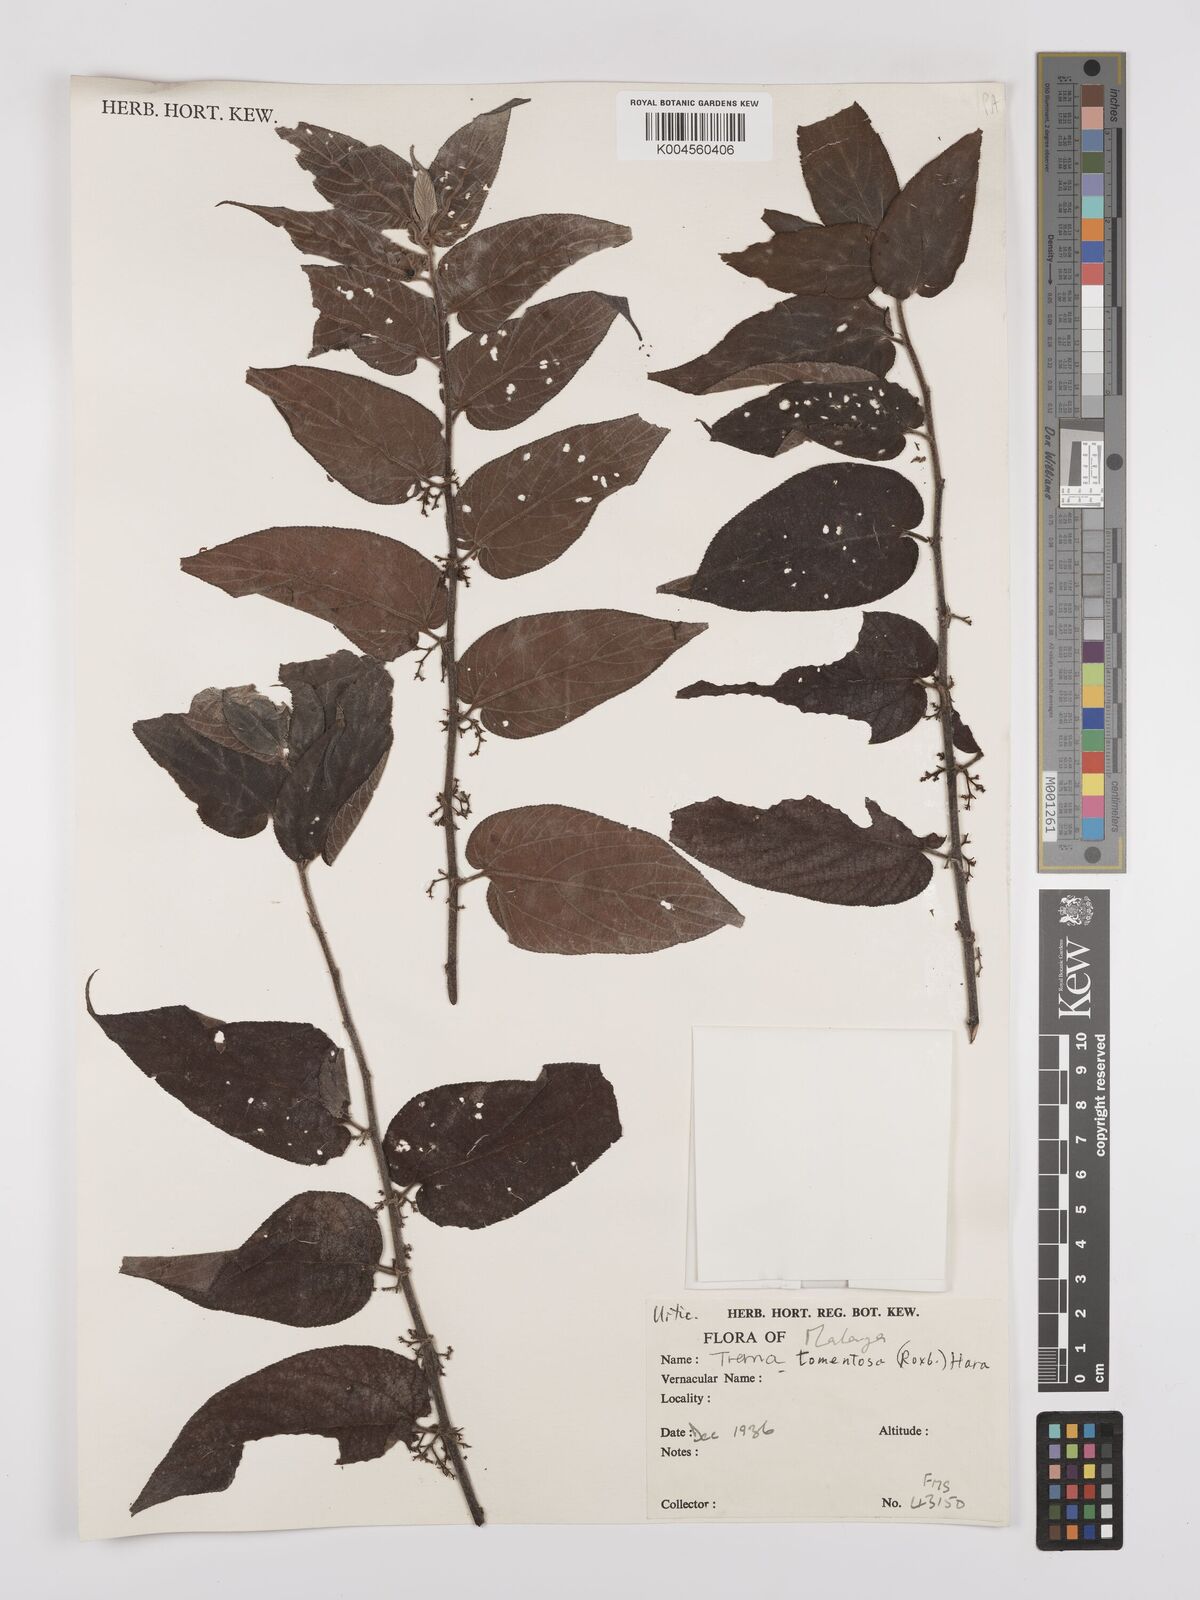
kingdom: Plantae
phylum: Tracheophyta
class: Magnoliopsida
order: Rosales
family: Cannabaceae
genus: Trema
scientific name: Trema tomentosum
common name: Peach-leaf-poisonbush
